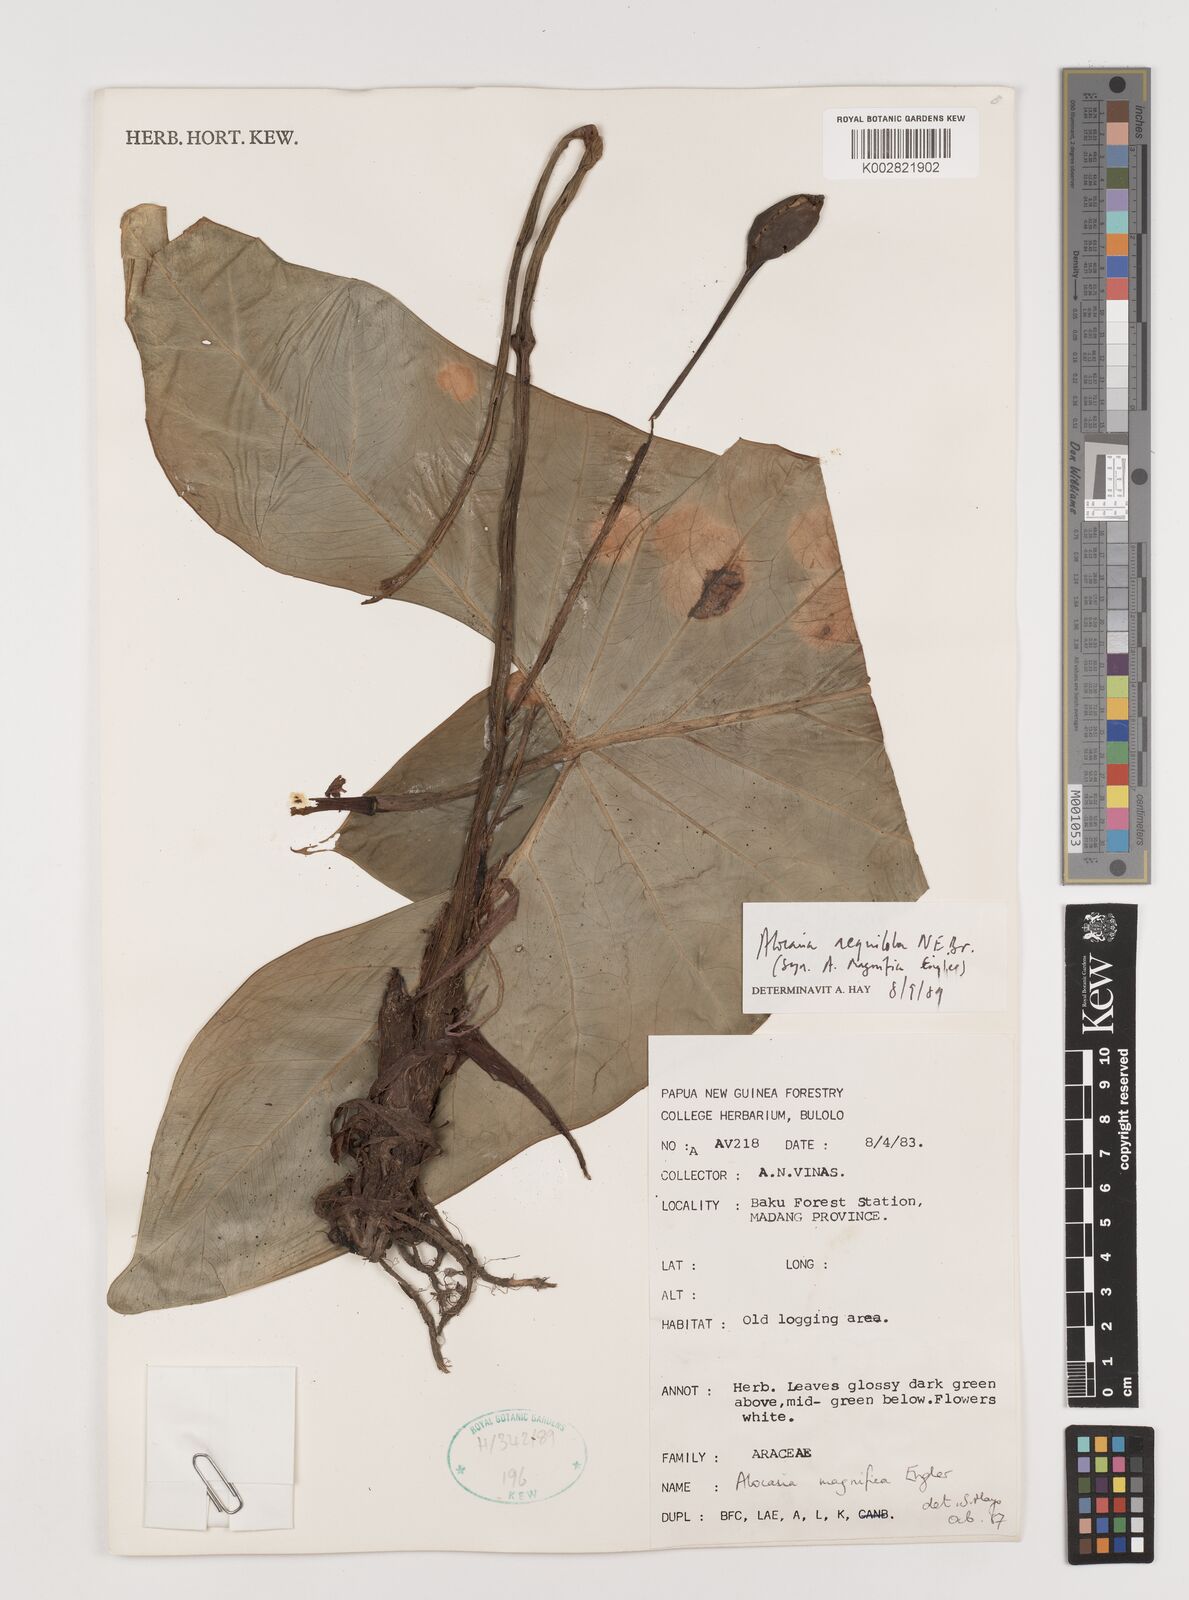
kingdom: Plantae
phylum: Tracheophyta
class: Liliopsida
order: Alismatales
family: Araceae
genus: Alocasia
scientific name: Alocasia aequiloba
